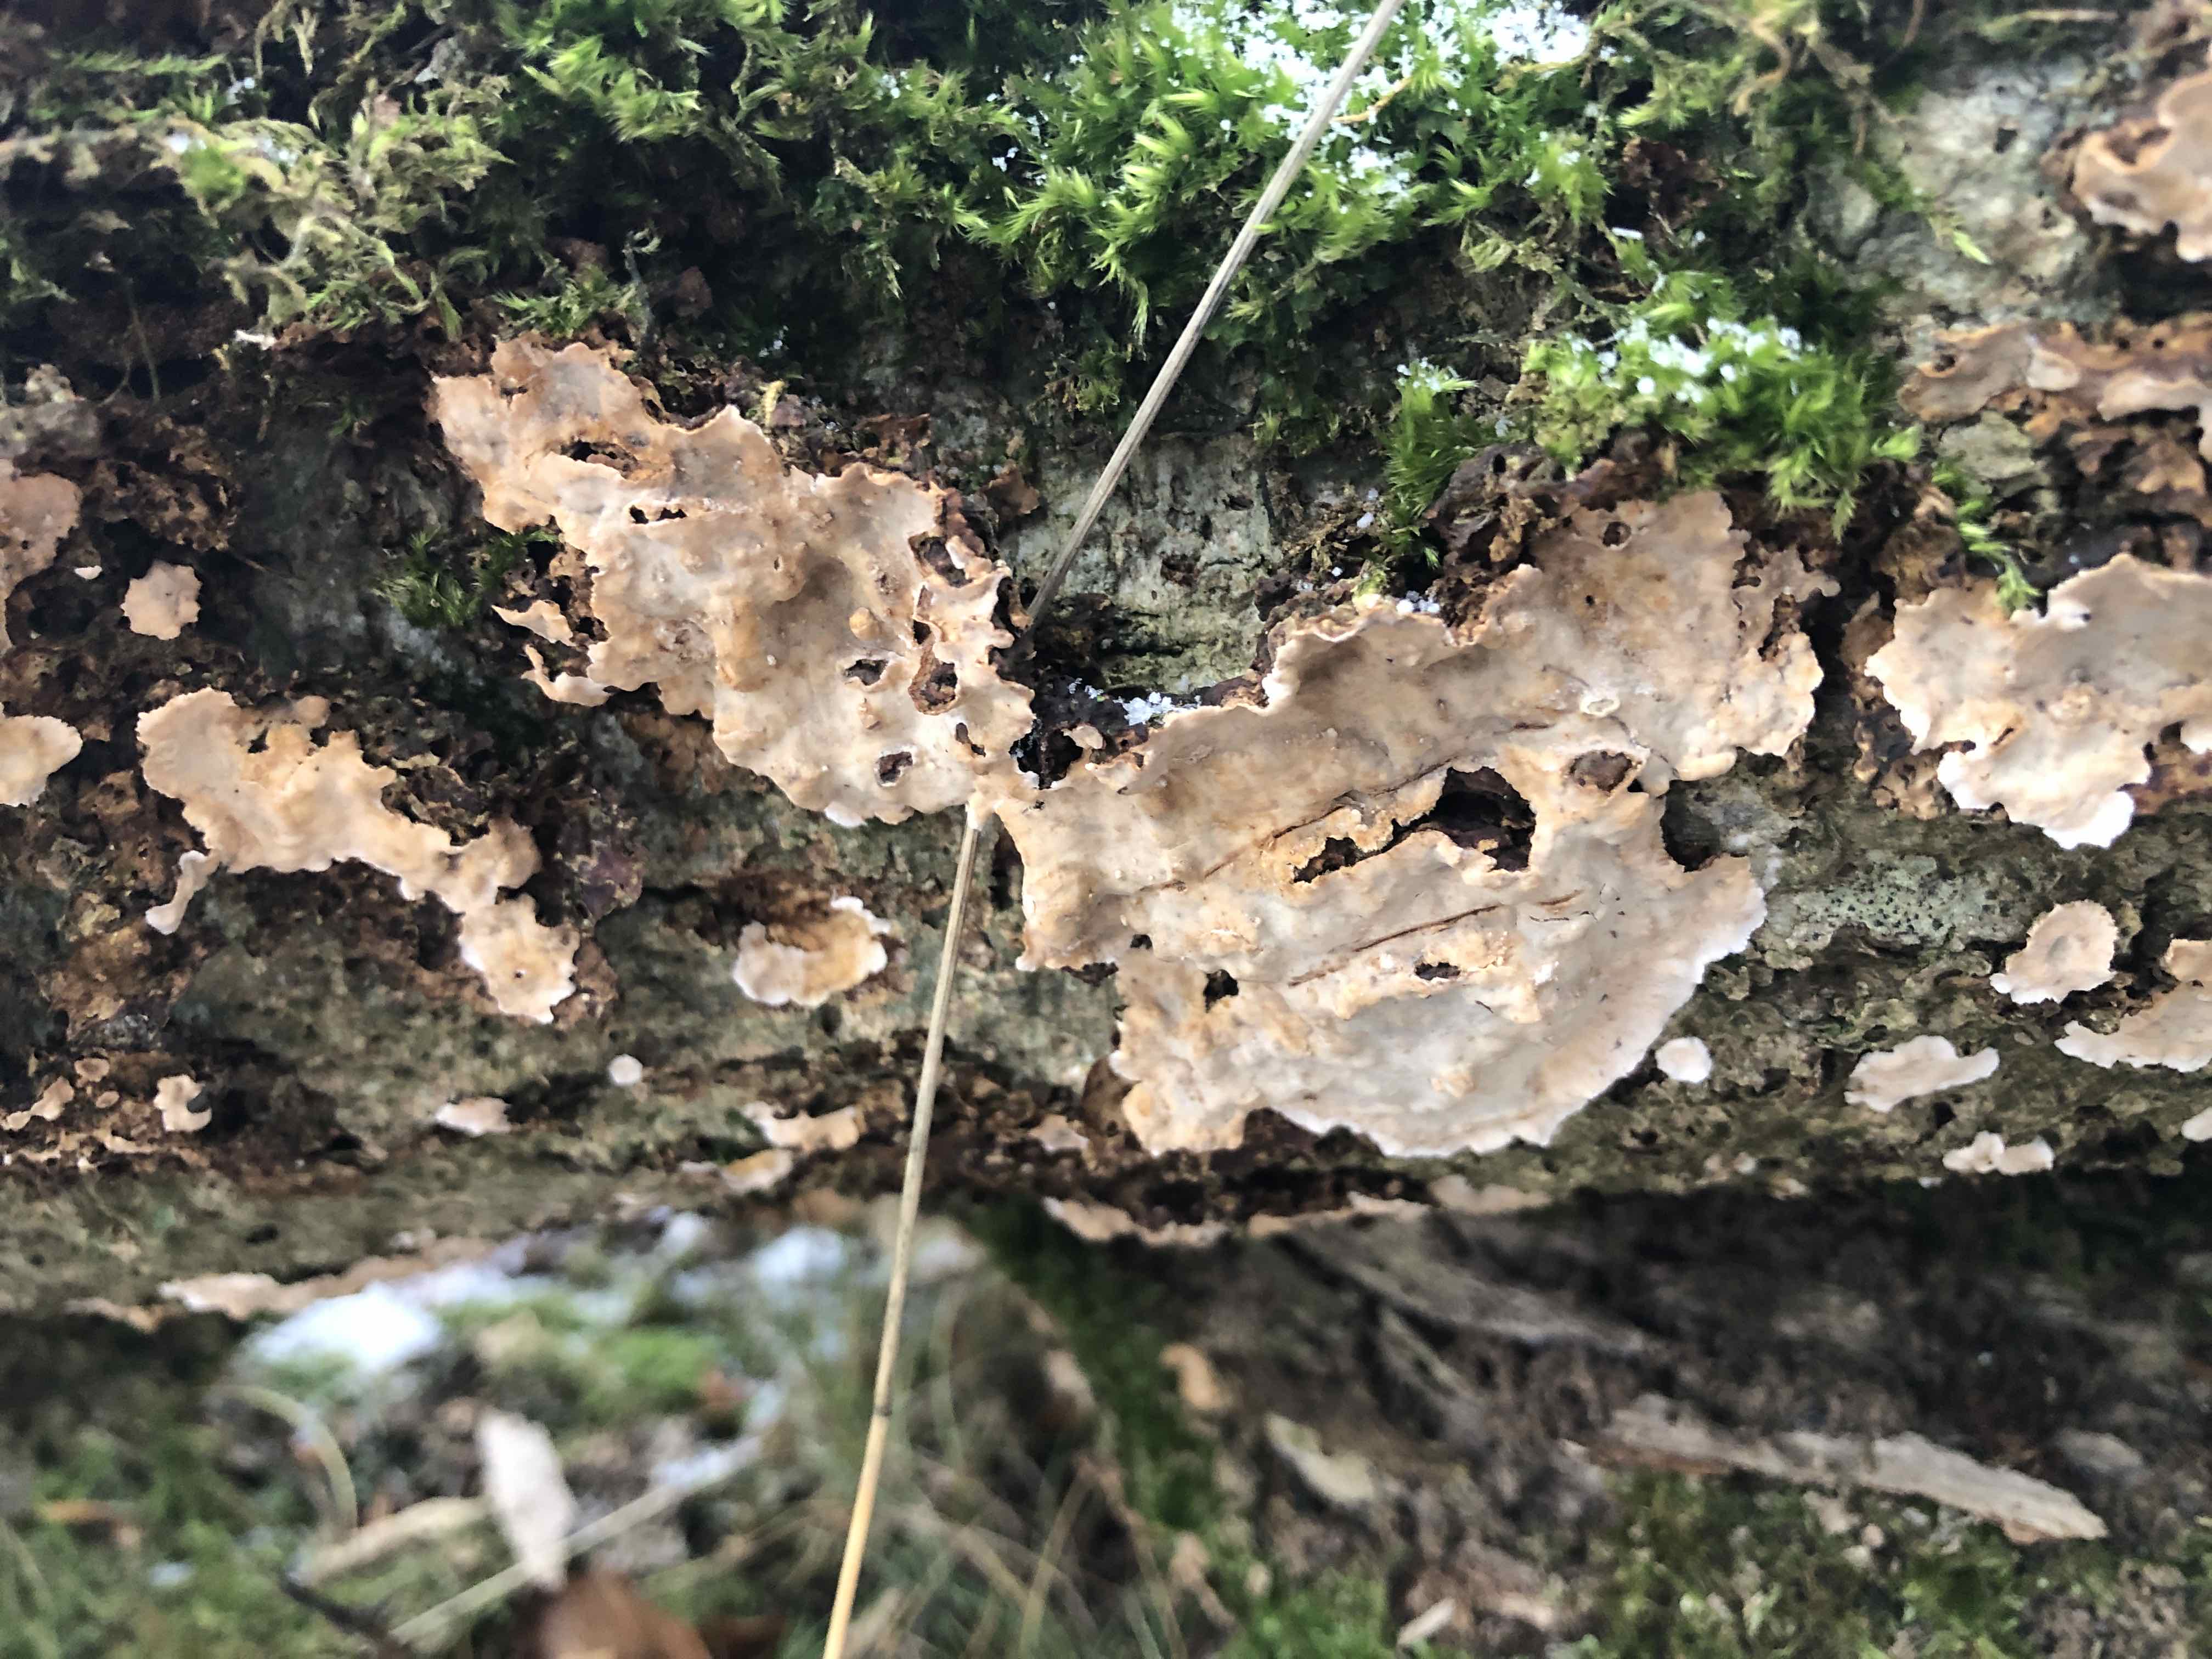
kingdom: Fungi
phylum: Basidiomycota
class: Agaricomycetes
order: Russulales
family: Stereaceae
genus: Stereum
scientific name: Stereum rugosum
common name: rynket lædersvamp
